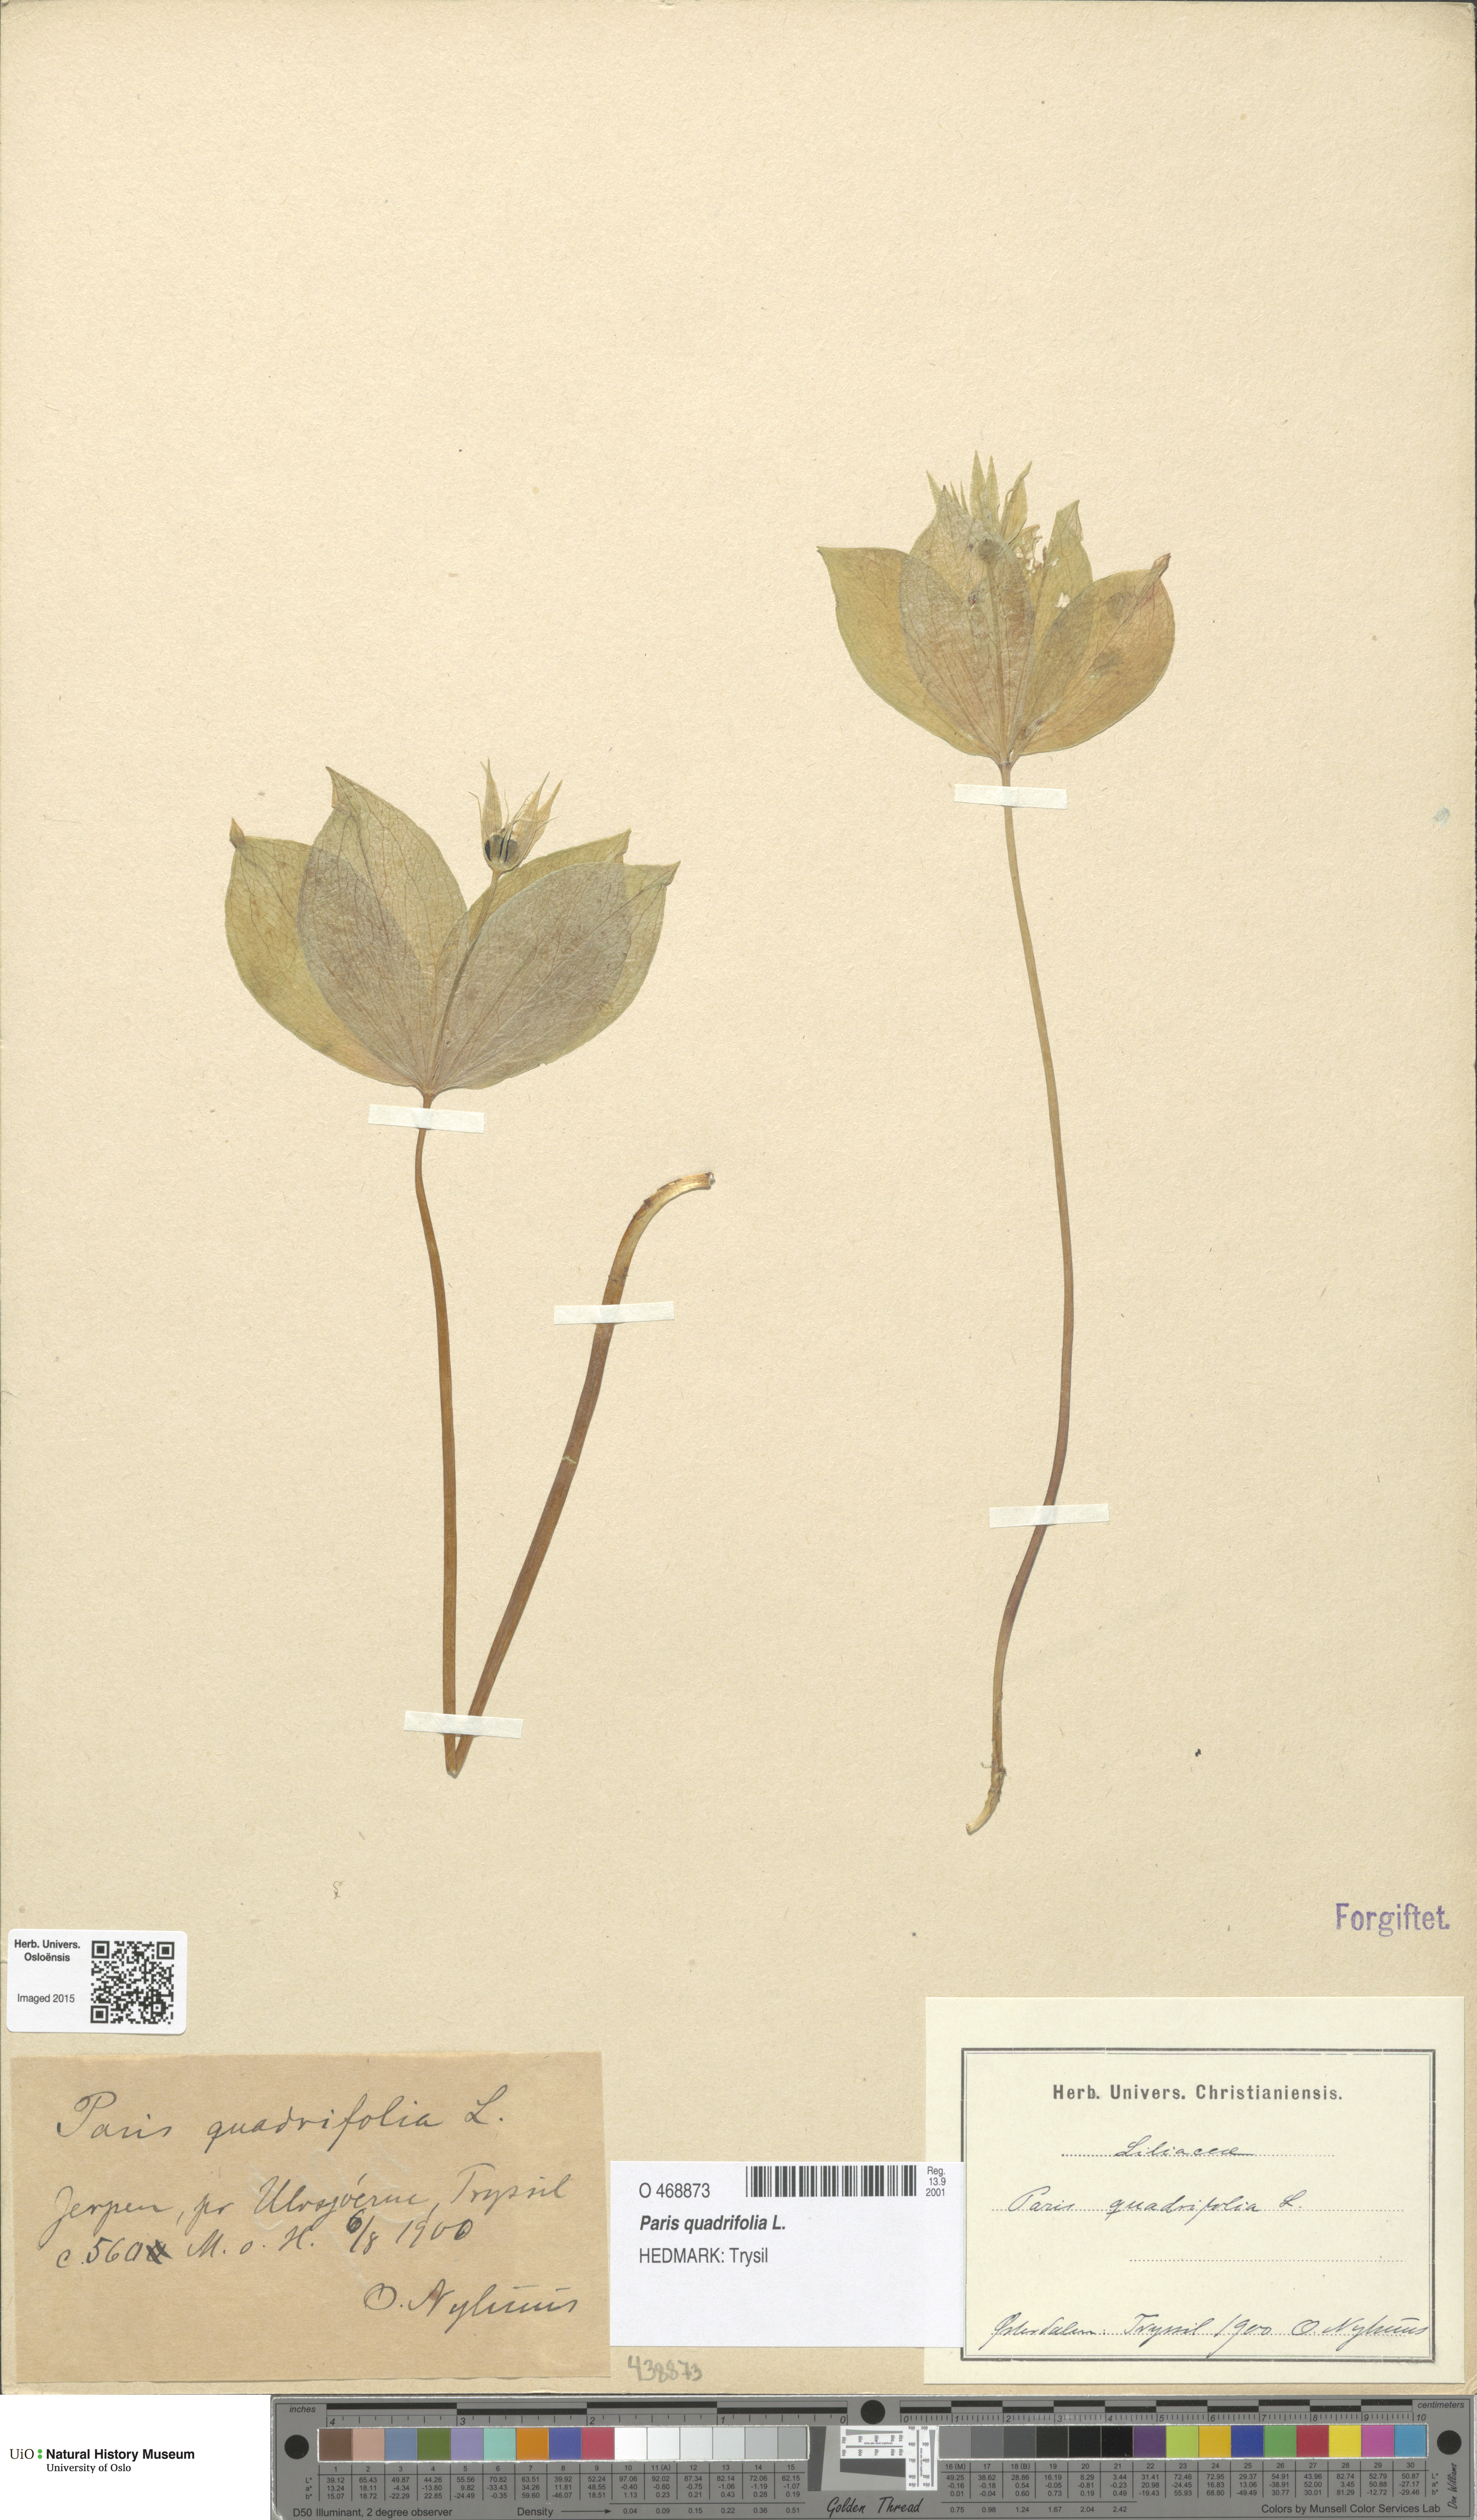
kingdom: Plantae
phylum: Tracheophyta
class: Liliopsida
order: Liliales
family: Melanthiaceae
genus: Paris
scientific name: Paris quadrifolia
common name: Herb-paris
